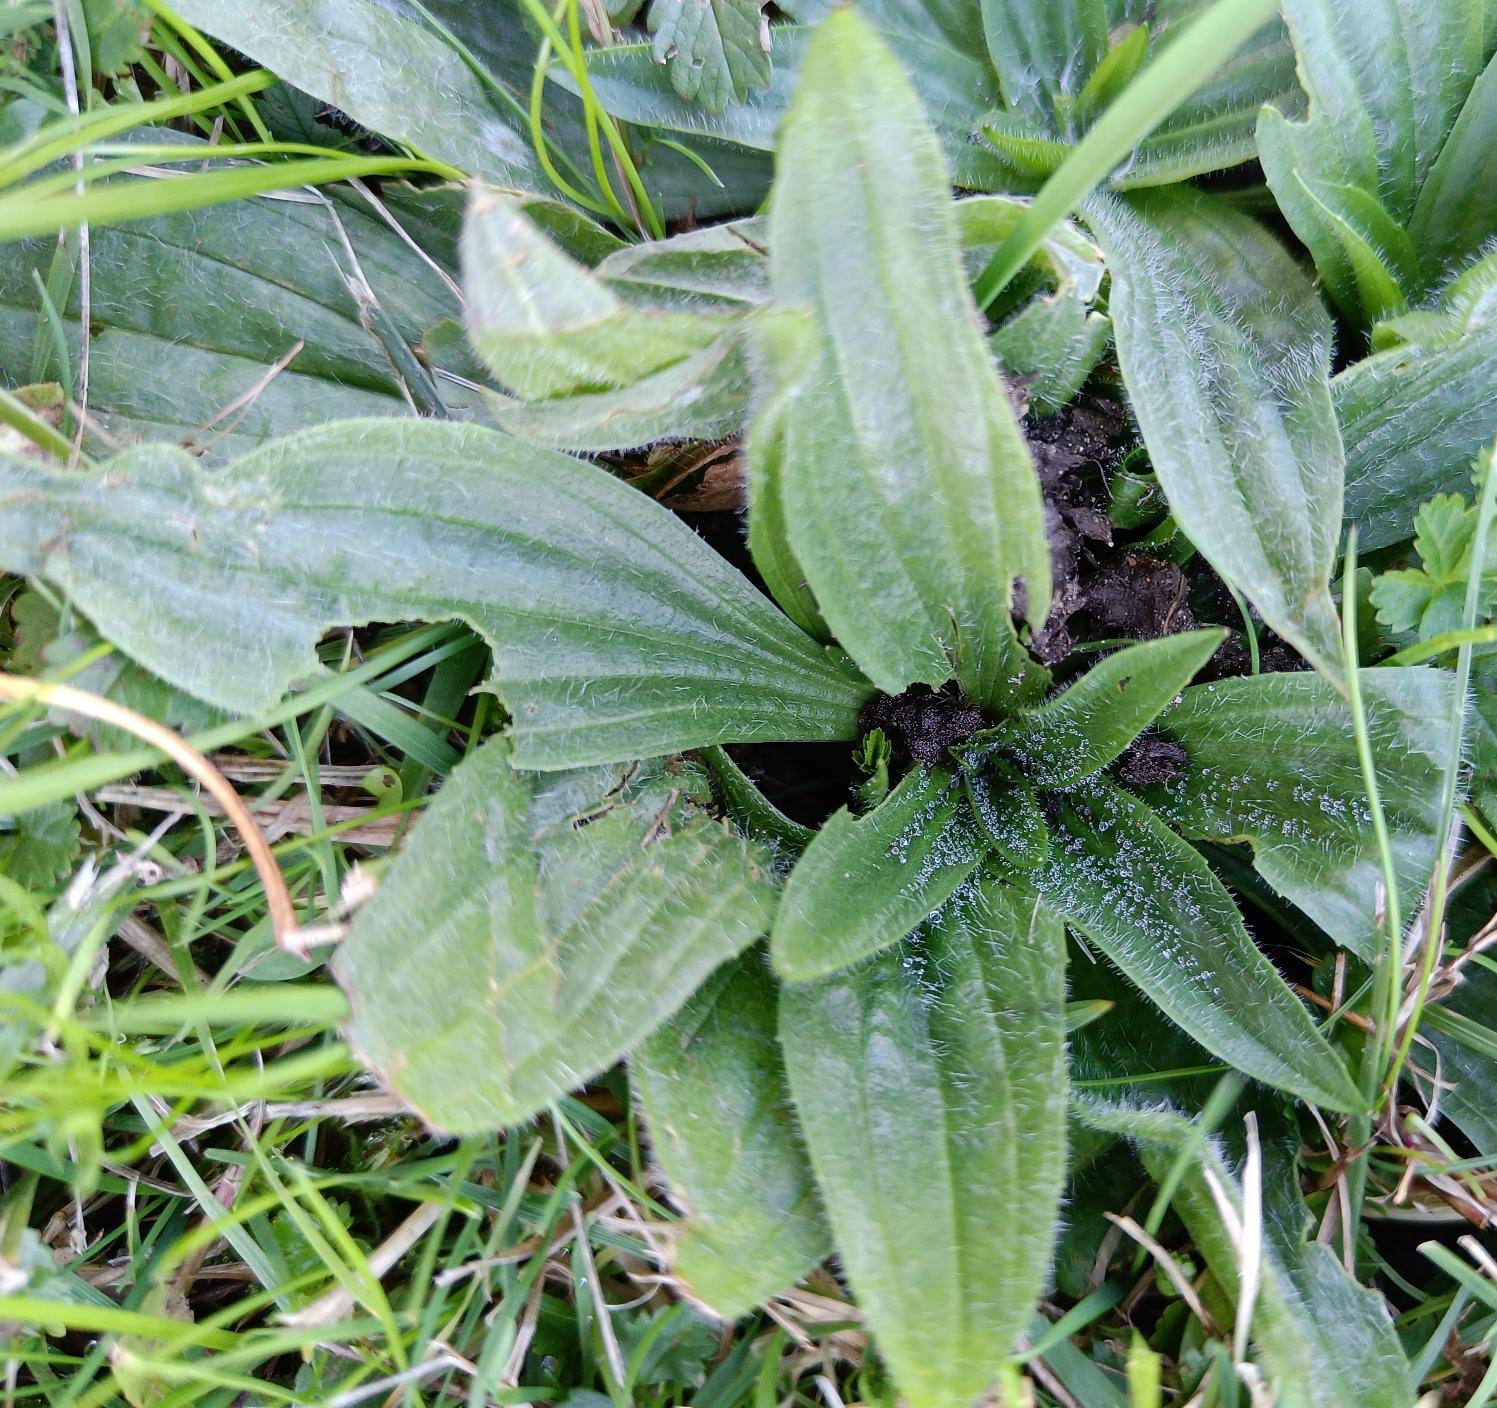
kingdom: Plantae
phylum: Tracheophyta
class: Magnoliopsida
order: Lamiales
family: Plantaginaceae
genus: Plantago
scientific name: Plantago media
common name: Dunet vejbred
